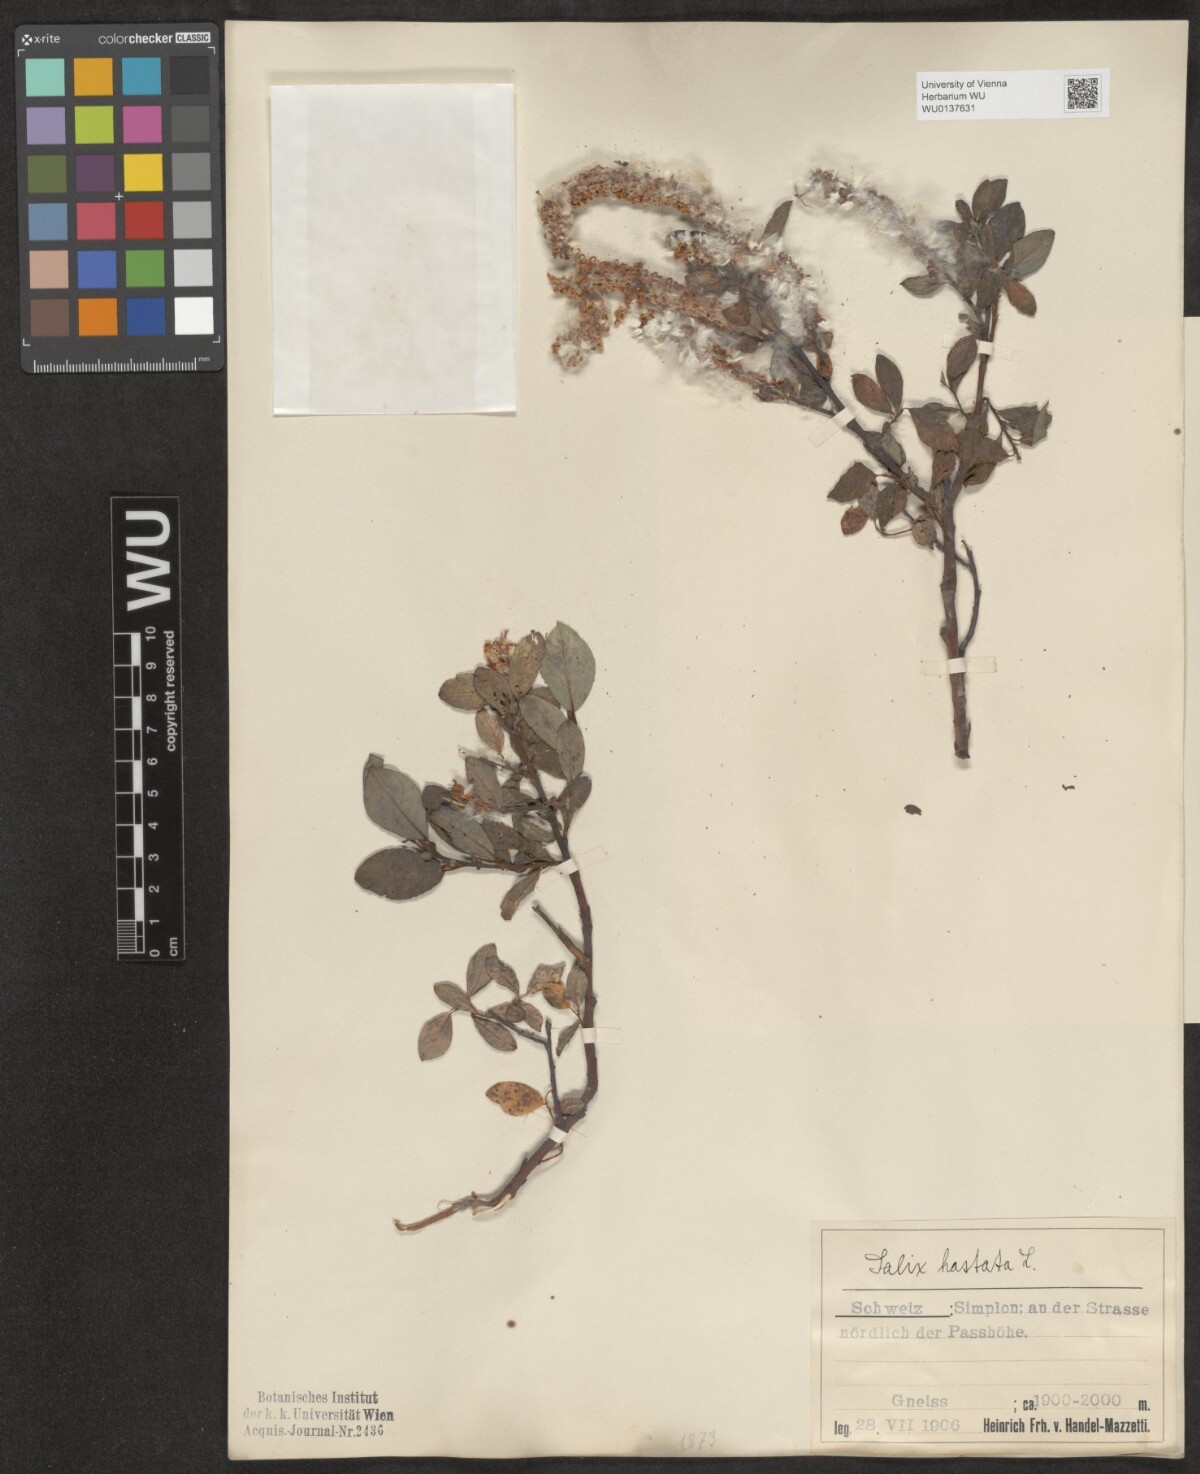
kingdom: Plantae
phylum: Tracheophyta
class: Magnoliopsida
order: Malpighiales
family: Salicaceae
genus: Salix
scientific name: Salix hastata
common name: Halberd willow
